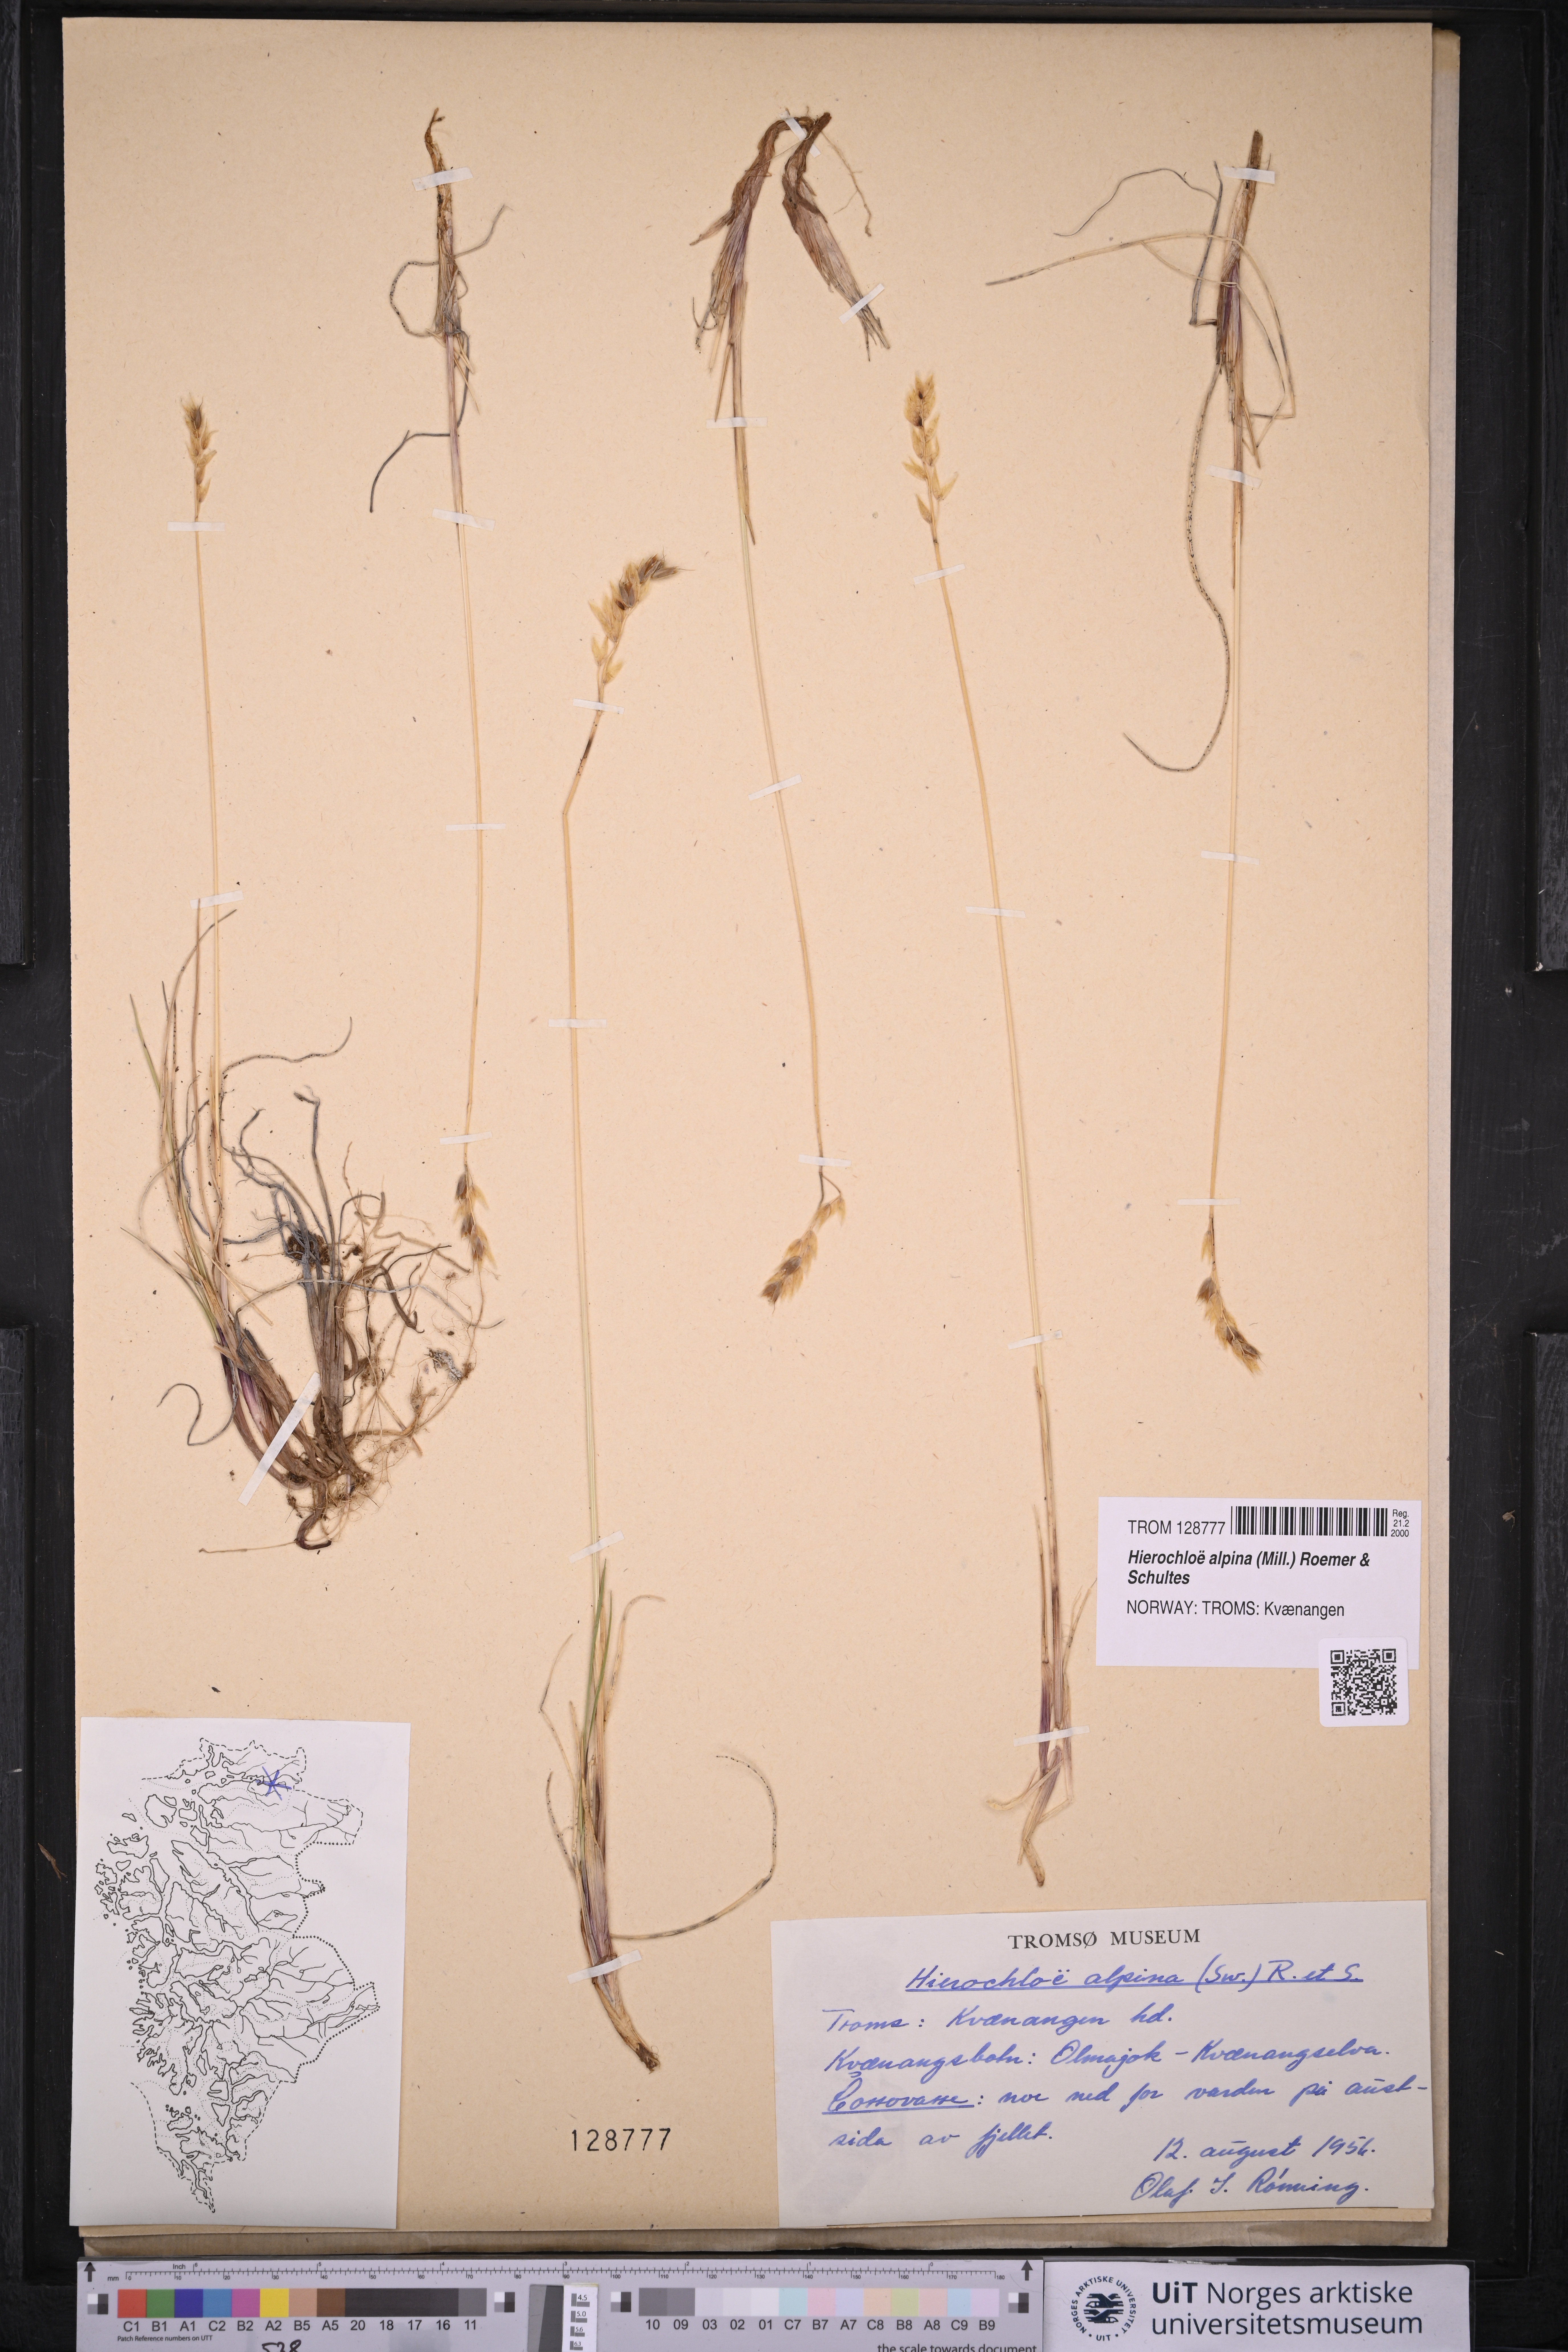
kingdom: Plantae
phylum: Tracheophyta
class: Liliopsida
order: Poales
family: Poaceae
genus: Anthoxanthum
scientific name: Anthoxanthum monticola
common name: Alpine sweetgrass
